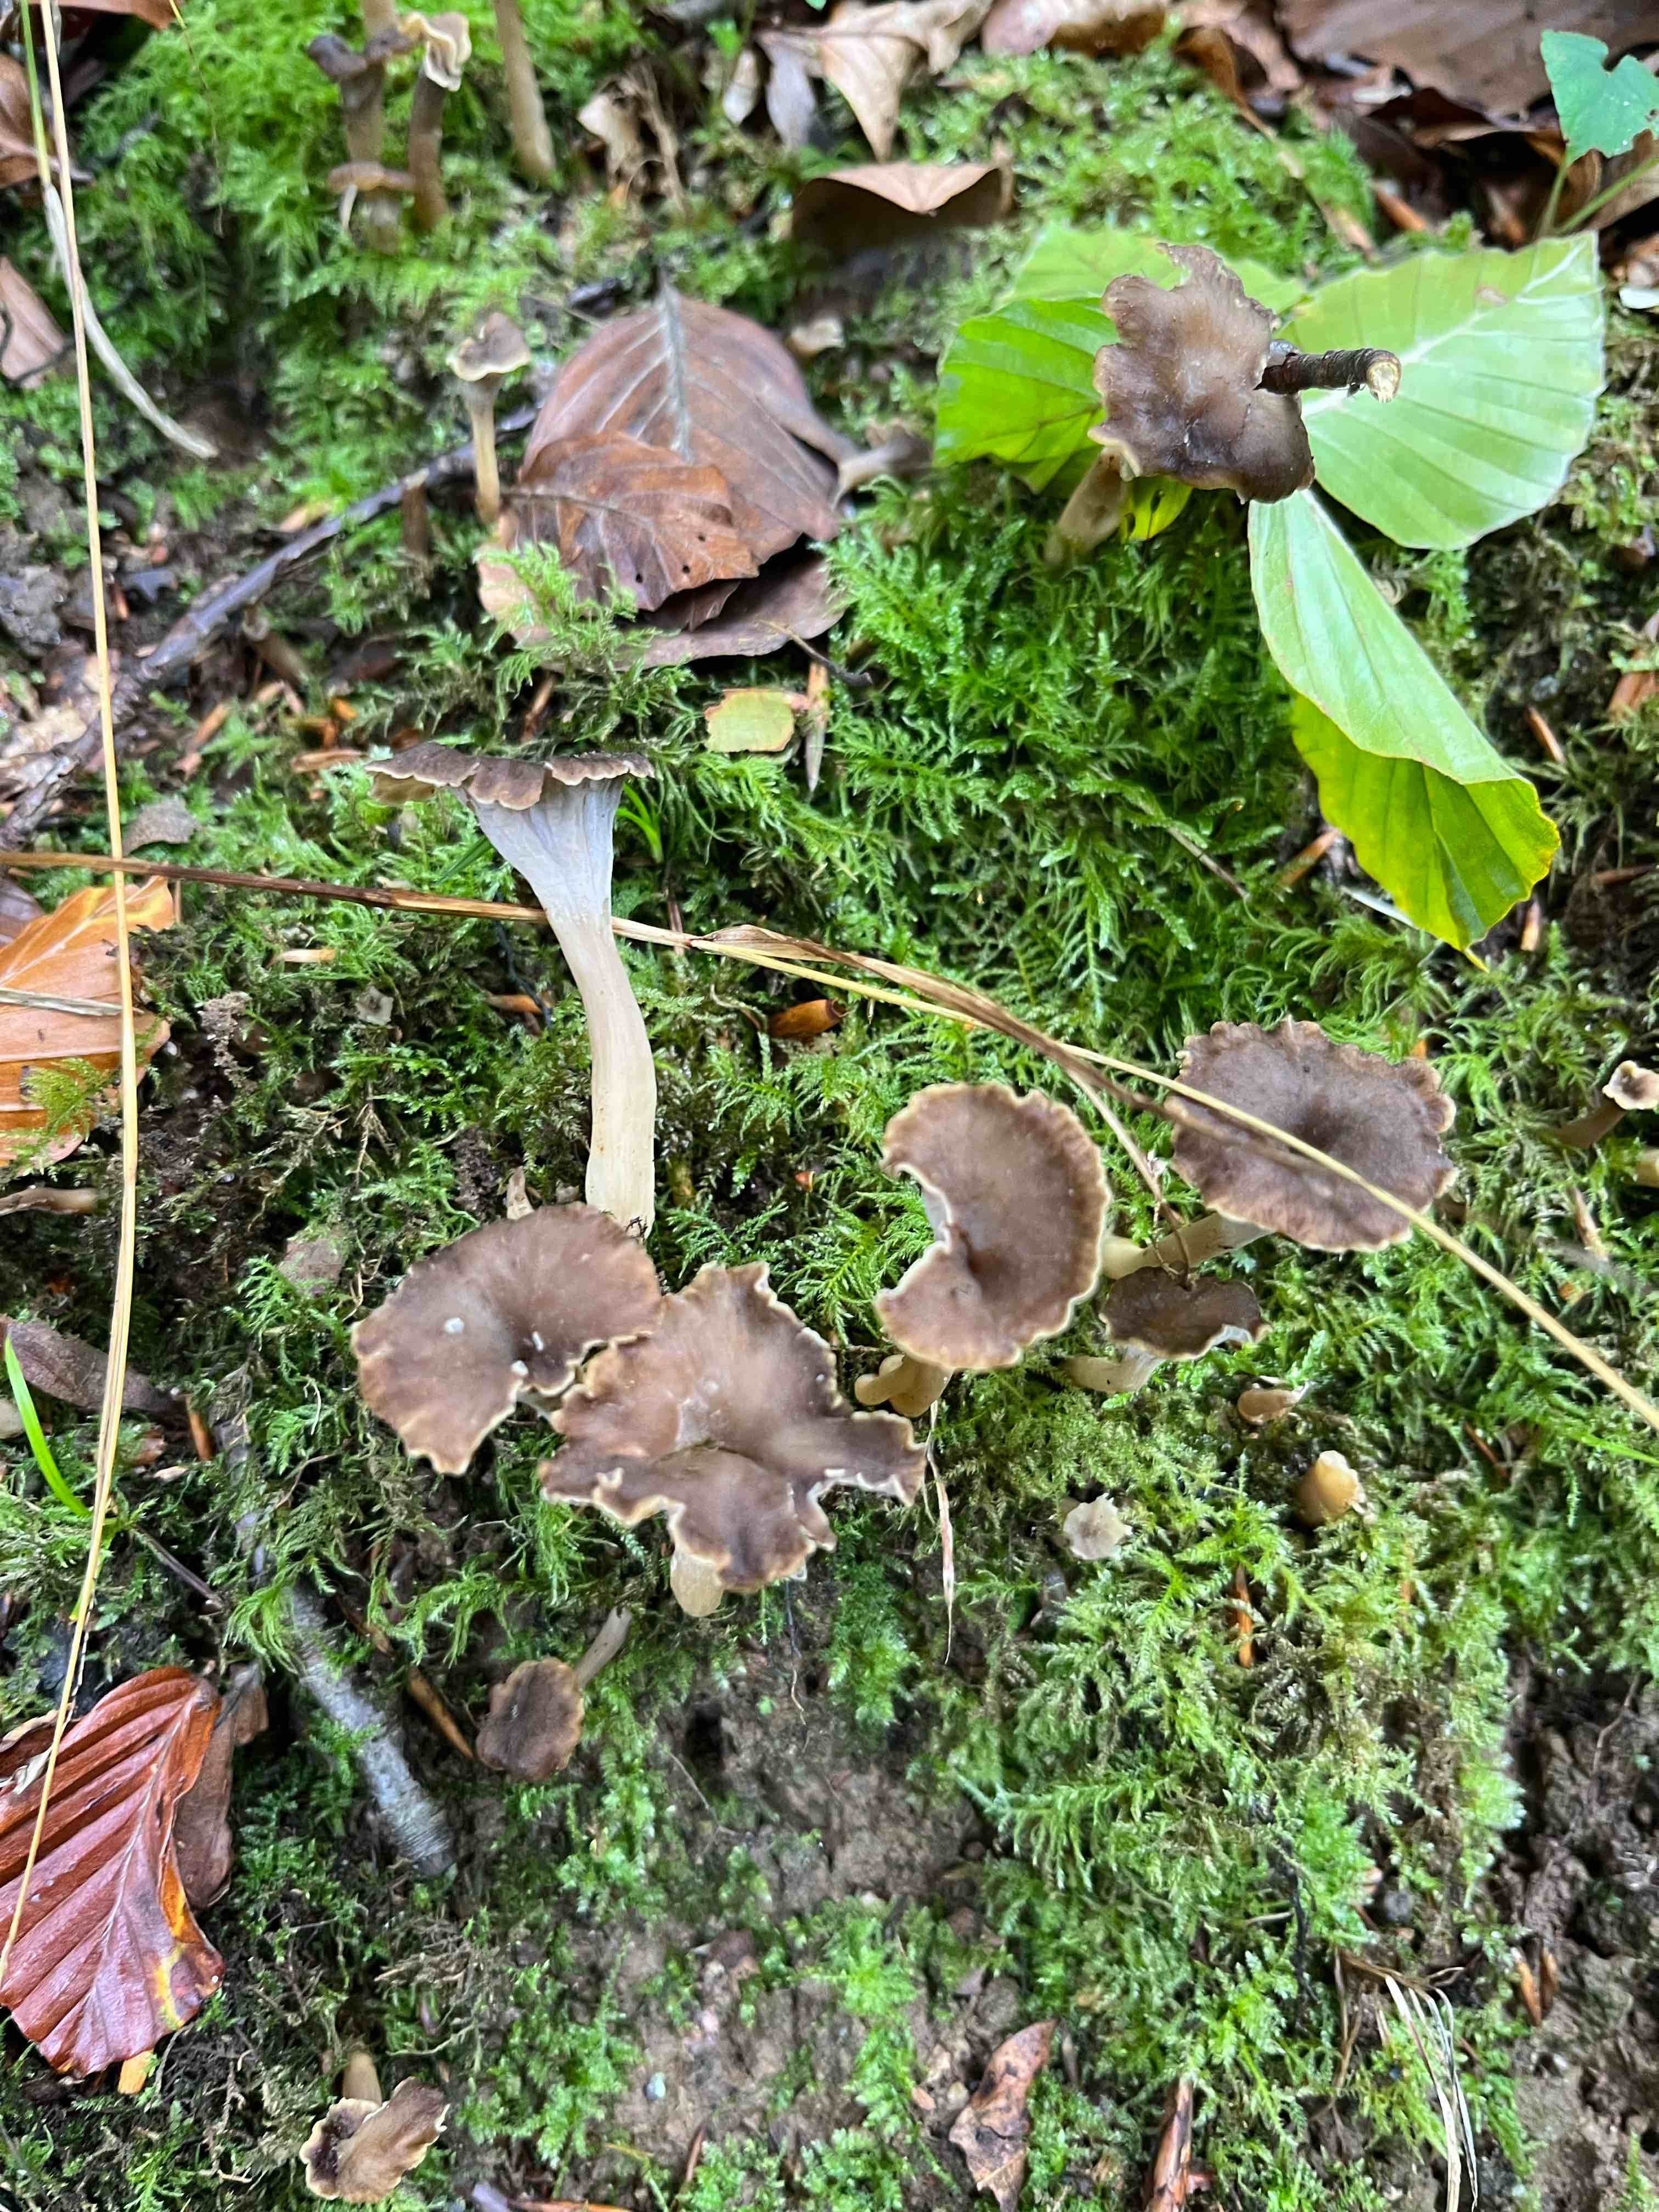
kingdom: Fungi
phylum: Basidiomycota
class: Agaricomycetes
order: Cantharellales
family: Hydnaceae
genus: Craterellus
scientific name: Craterellus undulatus
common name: liden kantarel
